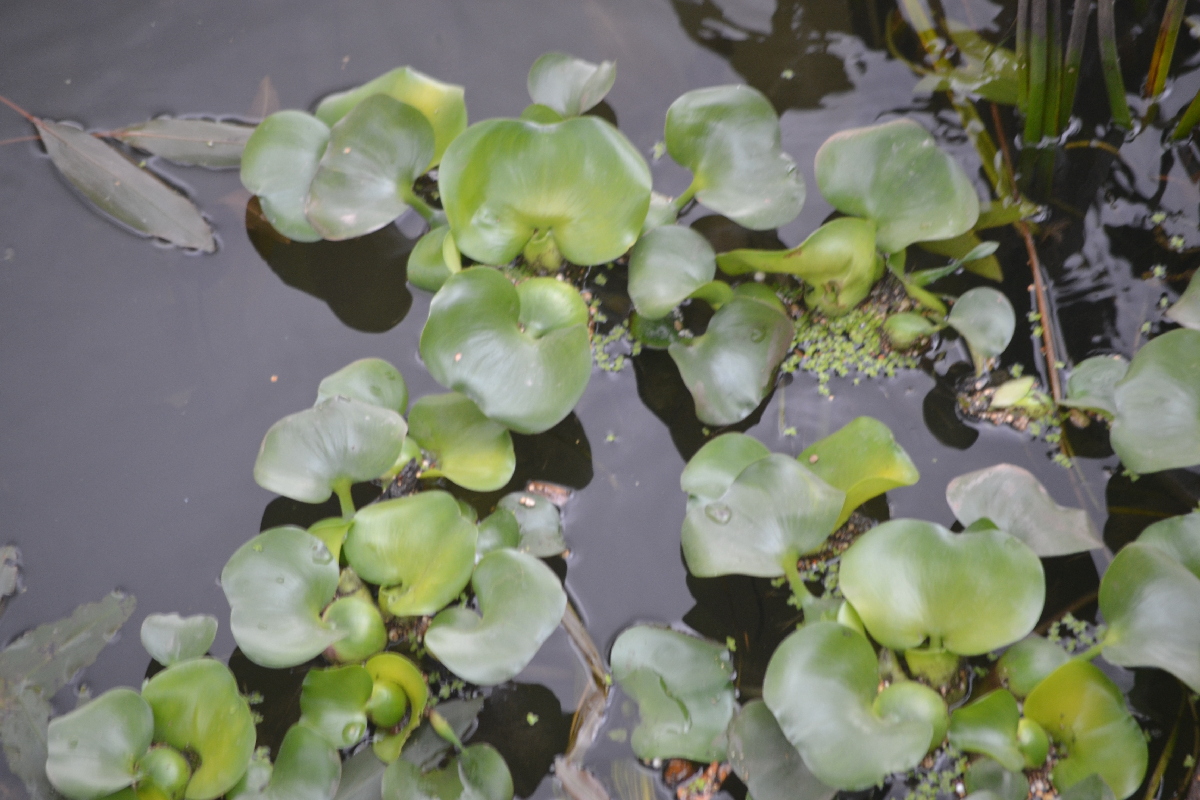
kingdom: Plantae
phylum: Tracheophyta
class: Liliopsida
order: Commelinales
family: Pontederiaceae
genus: Pontederia
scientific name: Pontederia crassipes
